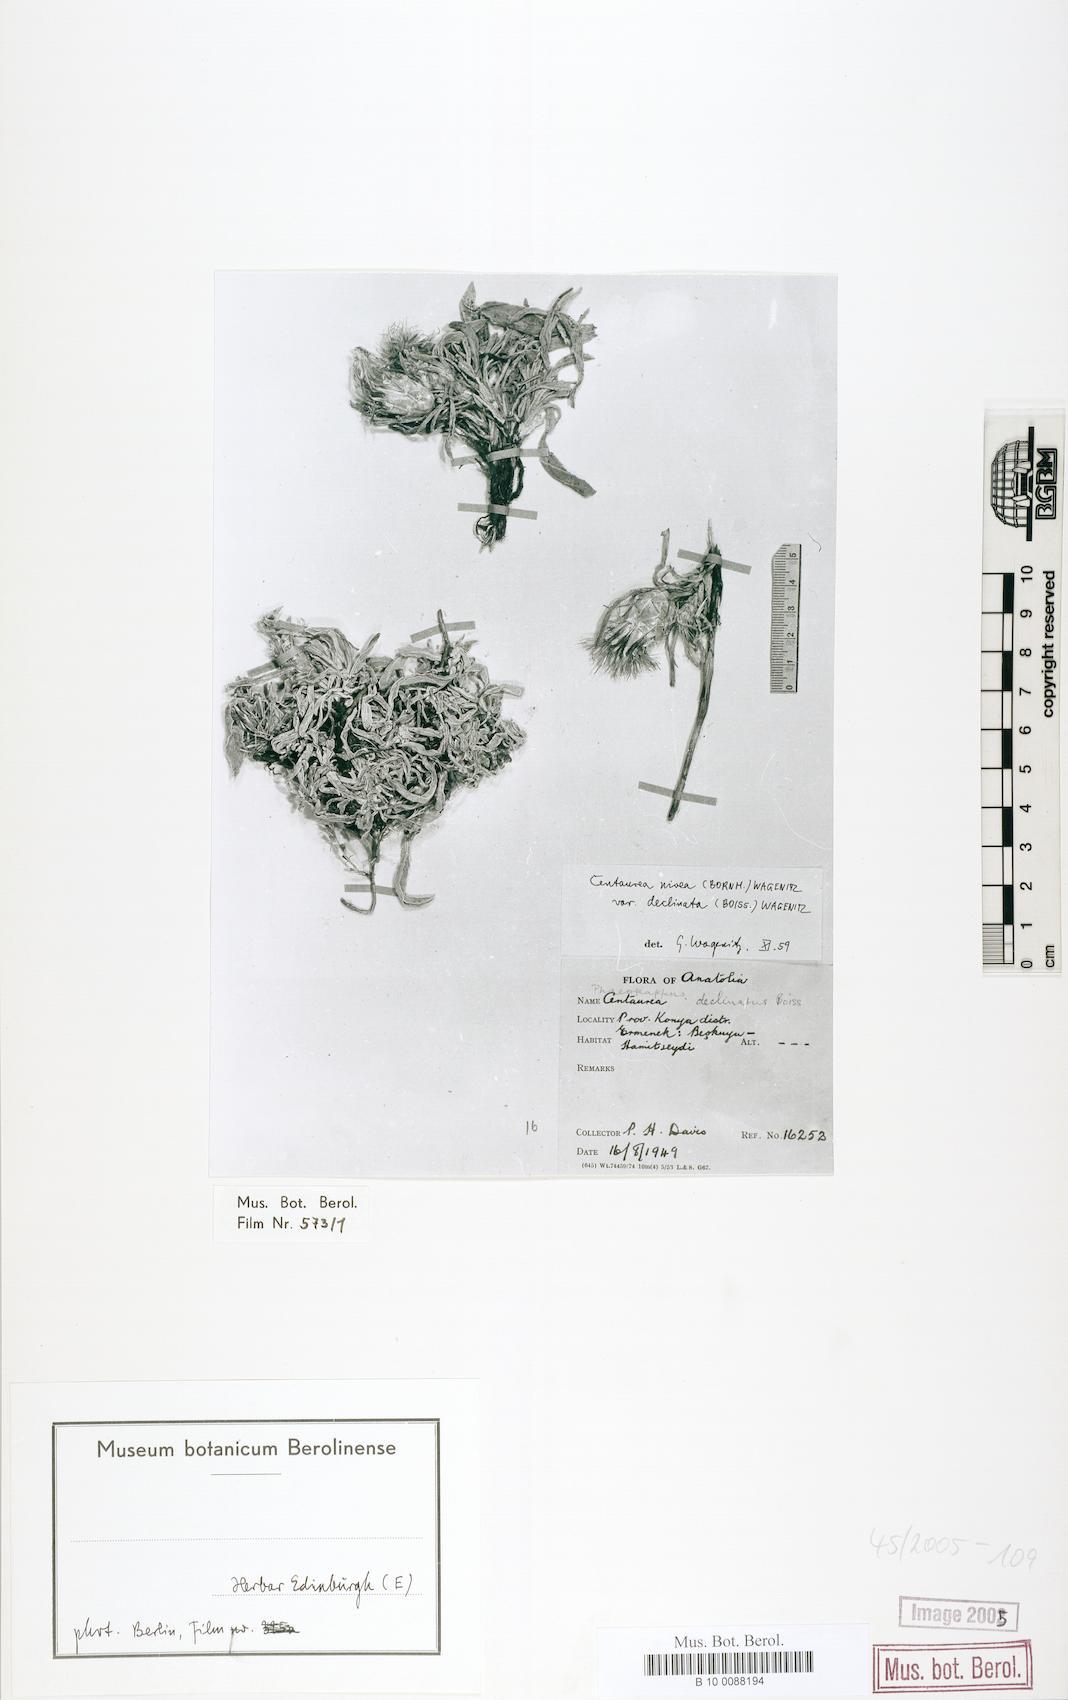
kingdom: Plantae
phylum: Tracheophyta
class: Magnoliopsida
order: Asterales
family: Asteraceae
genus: Centaurea
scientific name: Centaurea deflexa
